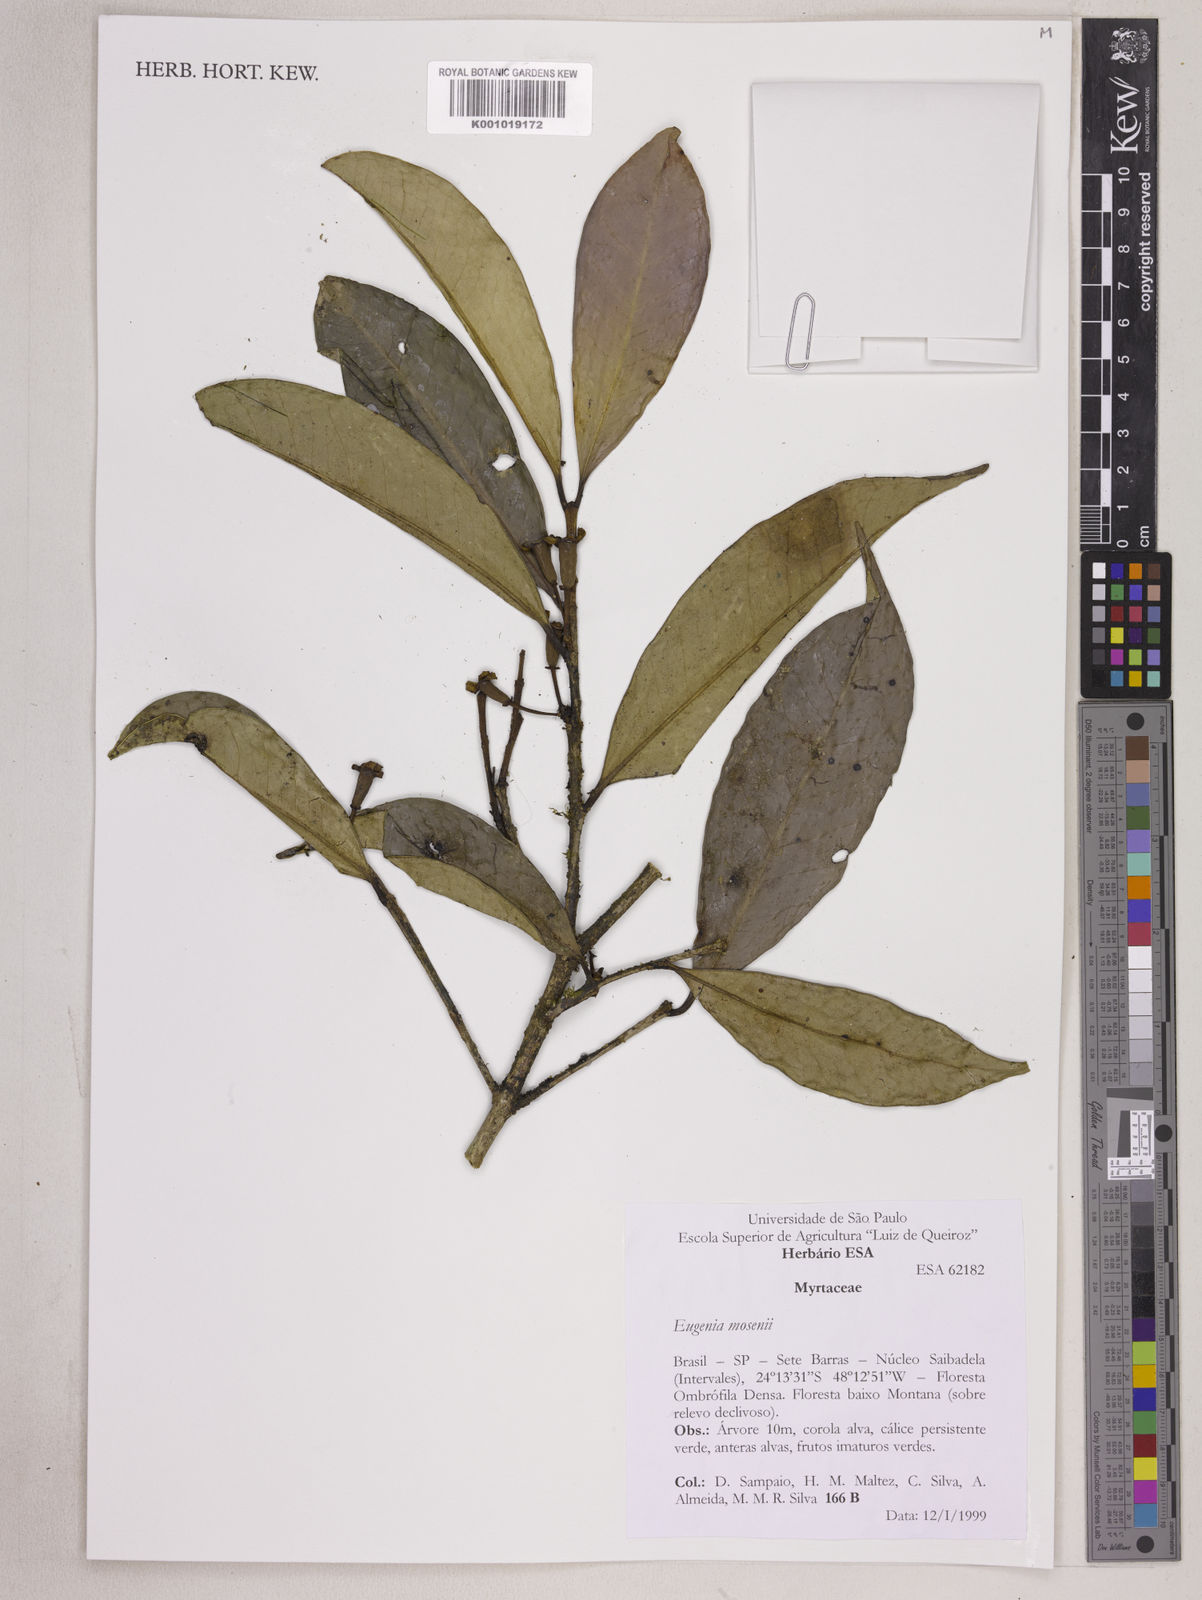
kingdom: Plantae
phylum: Tracheophyta
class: Magnoliopsida
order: Myrtales
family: Myrtaceae
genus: Eugenia
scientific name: Eugenia mosenii
